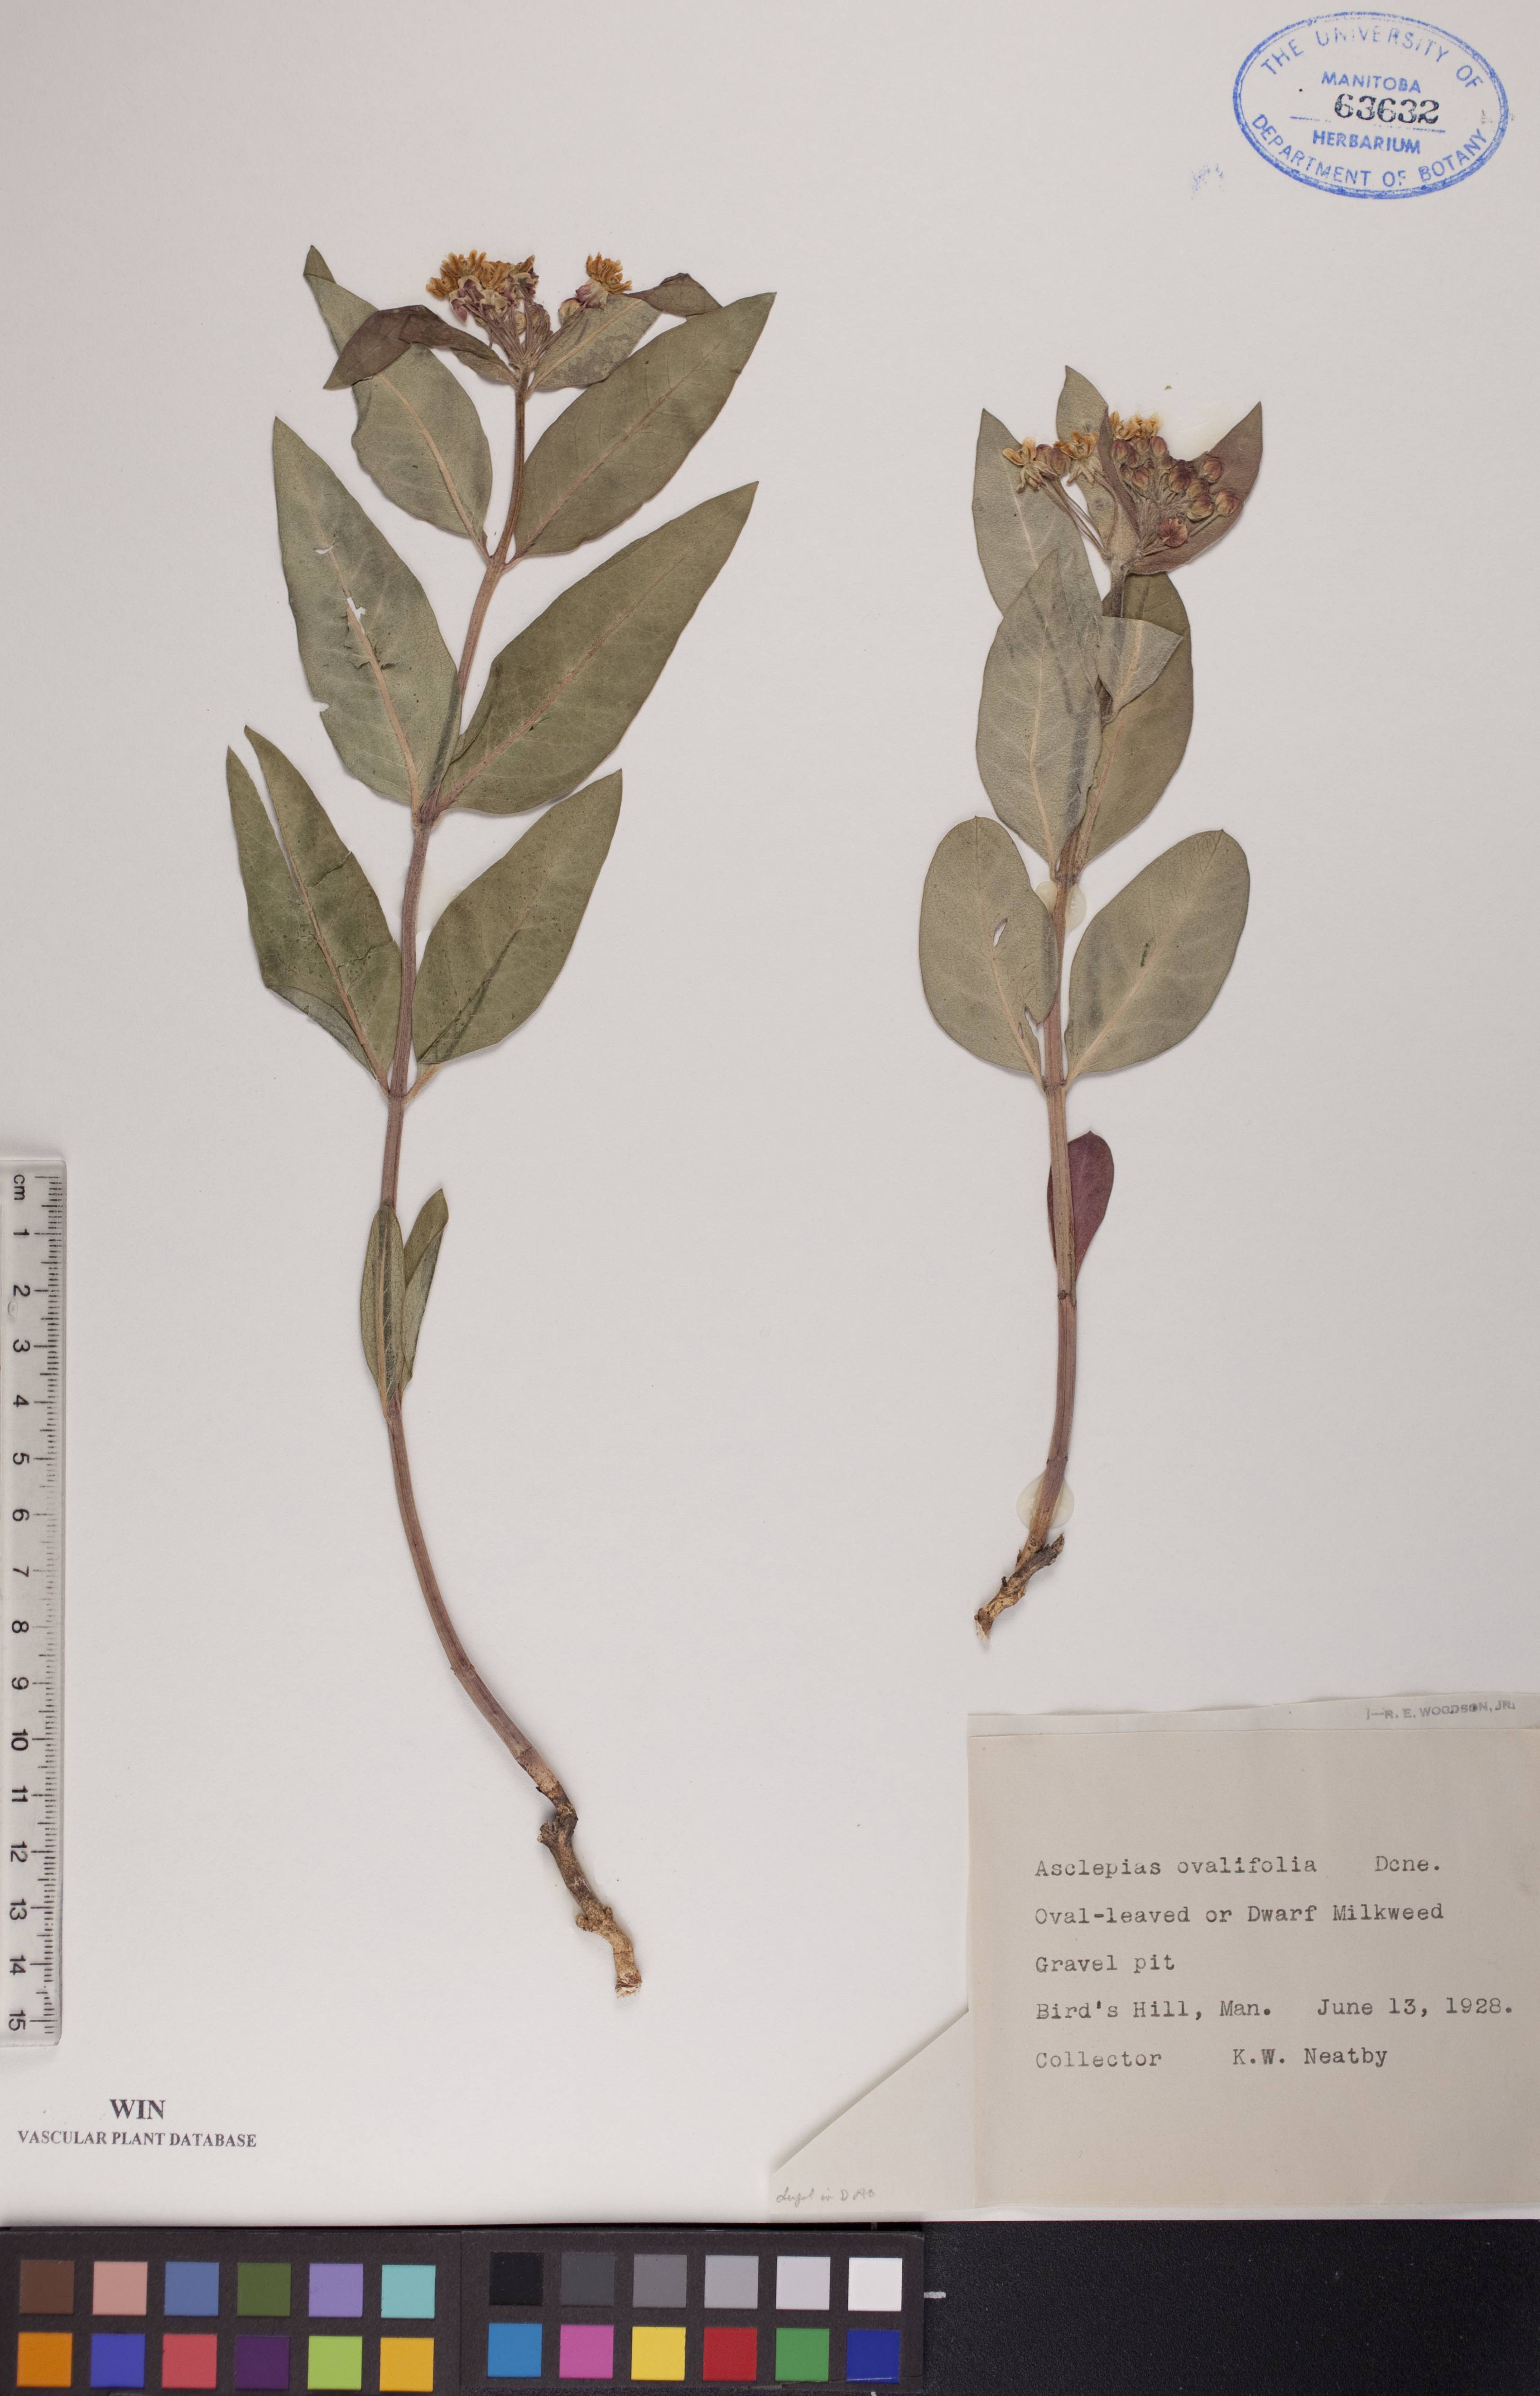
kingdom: Plantae
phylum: Tracheophyta
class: Magnoliopsida
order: Gentianales
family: Apocynaceae
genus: Asclepias
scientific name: Asclepias ovalifolia
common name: Dwarf milkweed
